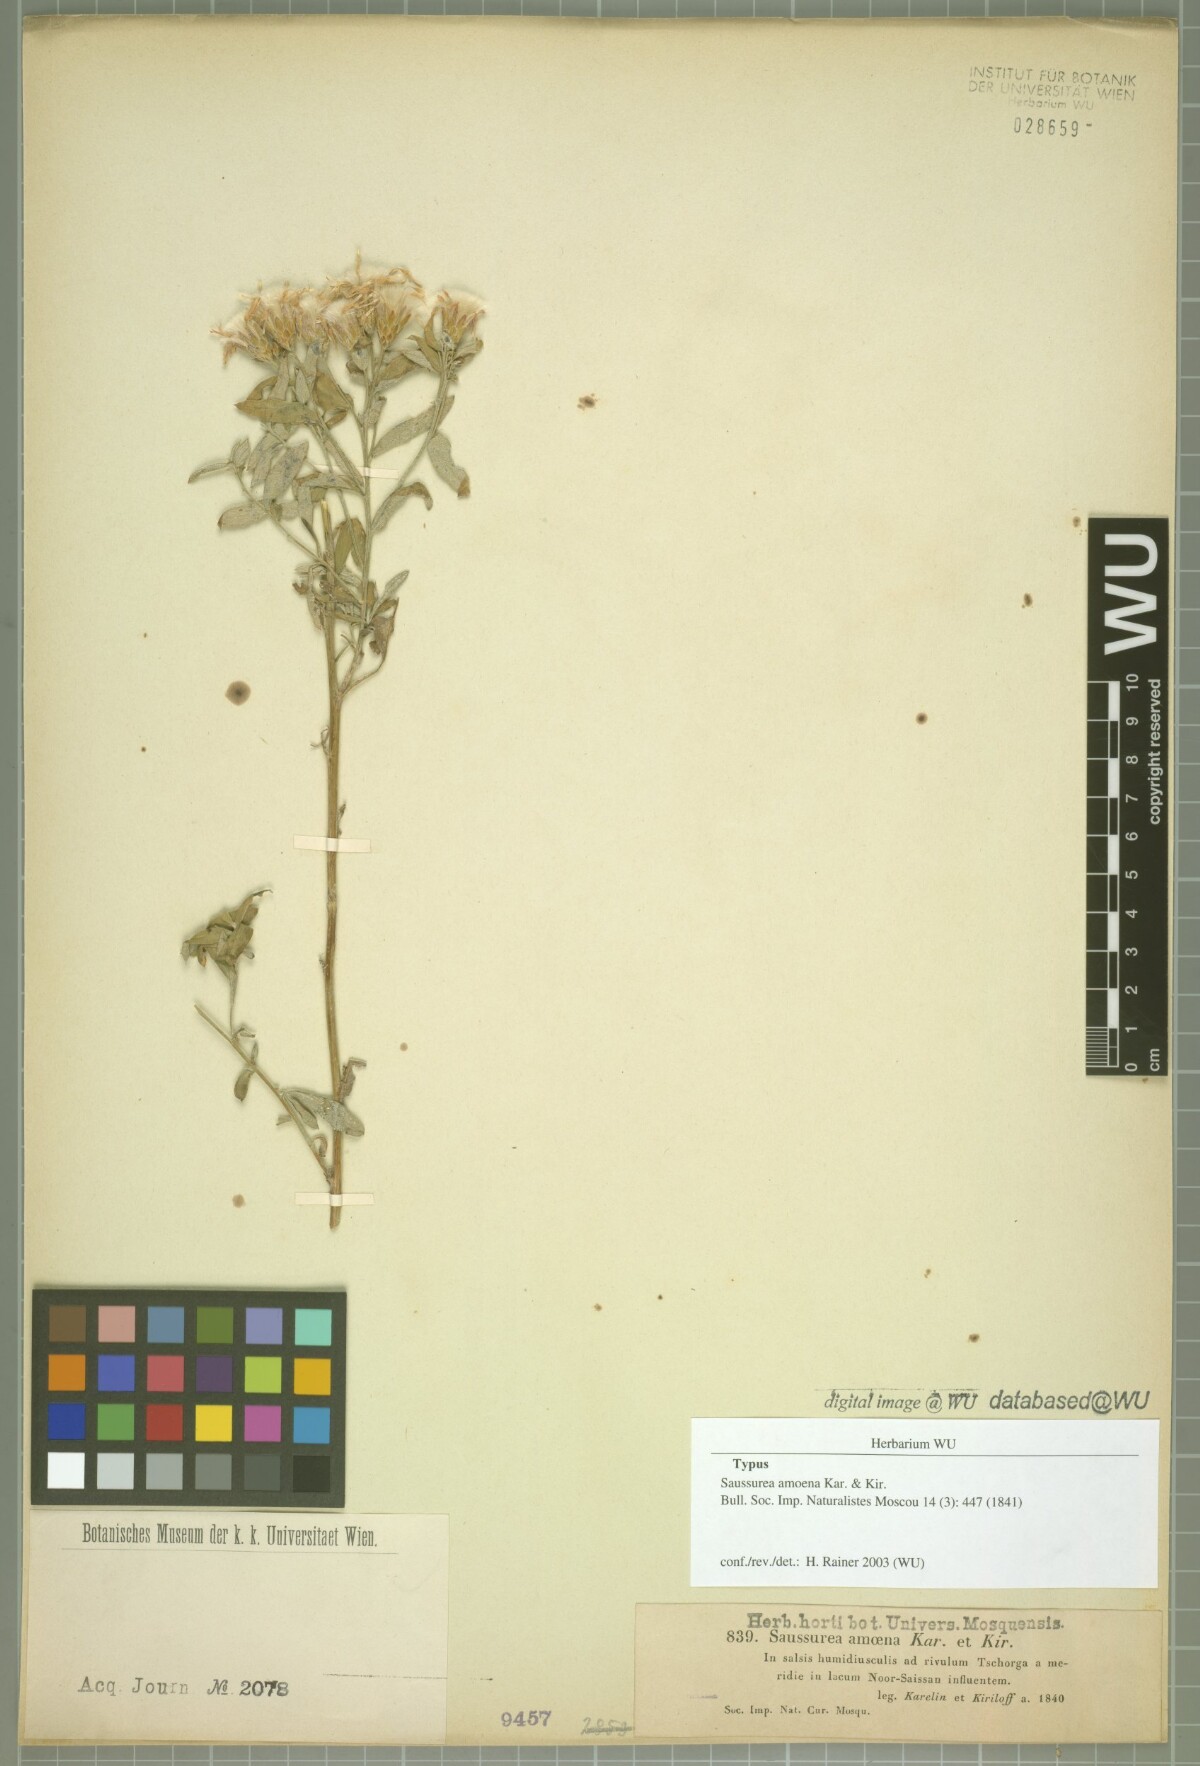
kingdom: Plantae
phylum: Tracheophyta
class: Magnoliopsida
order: Asterales
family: Asteraceae
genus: Saussurea
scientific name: Saussurea elegans
